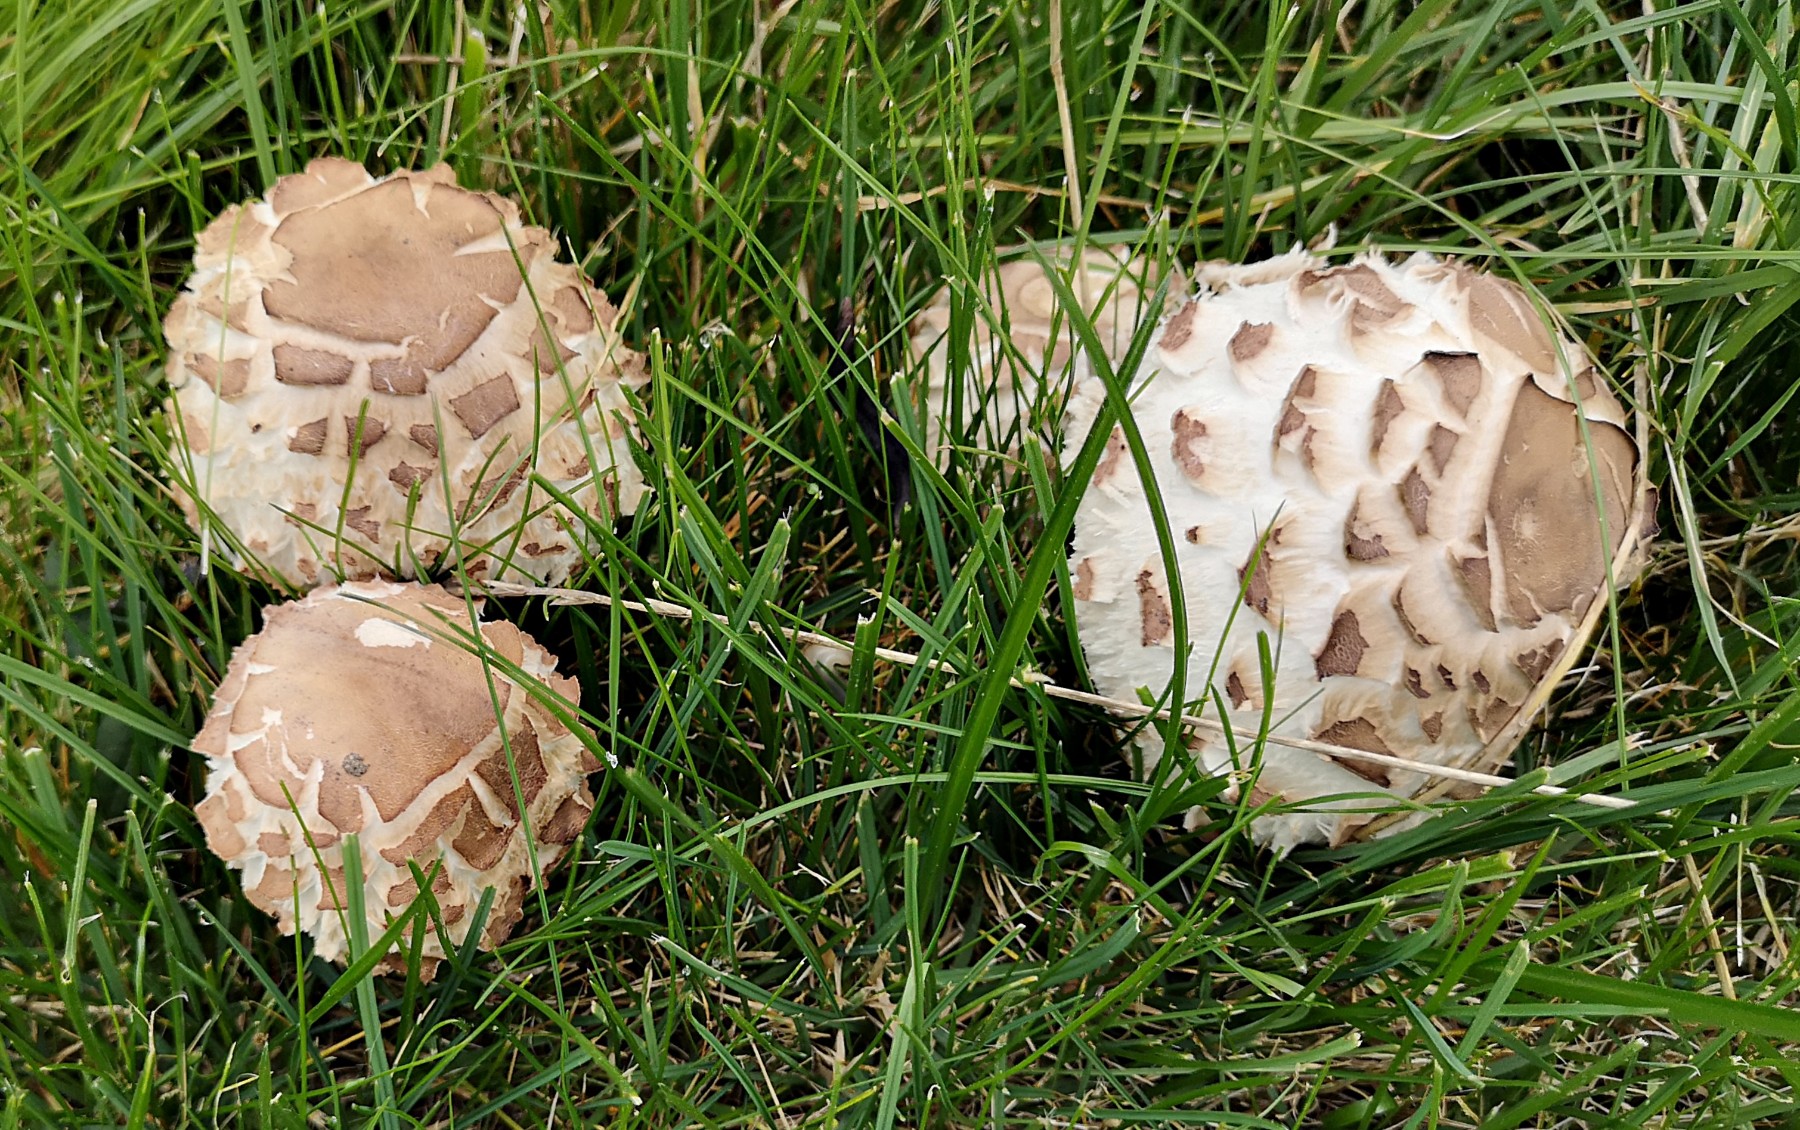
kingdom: Fungi
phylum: Basidiomycota
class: Agaricomycetes
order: Agaricales
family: Agaricaceae
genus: Chlorophyllum
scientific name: Chlorophyllum
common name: rabarberhat
